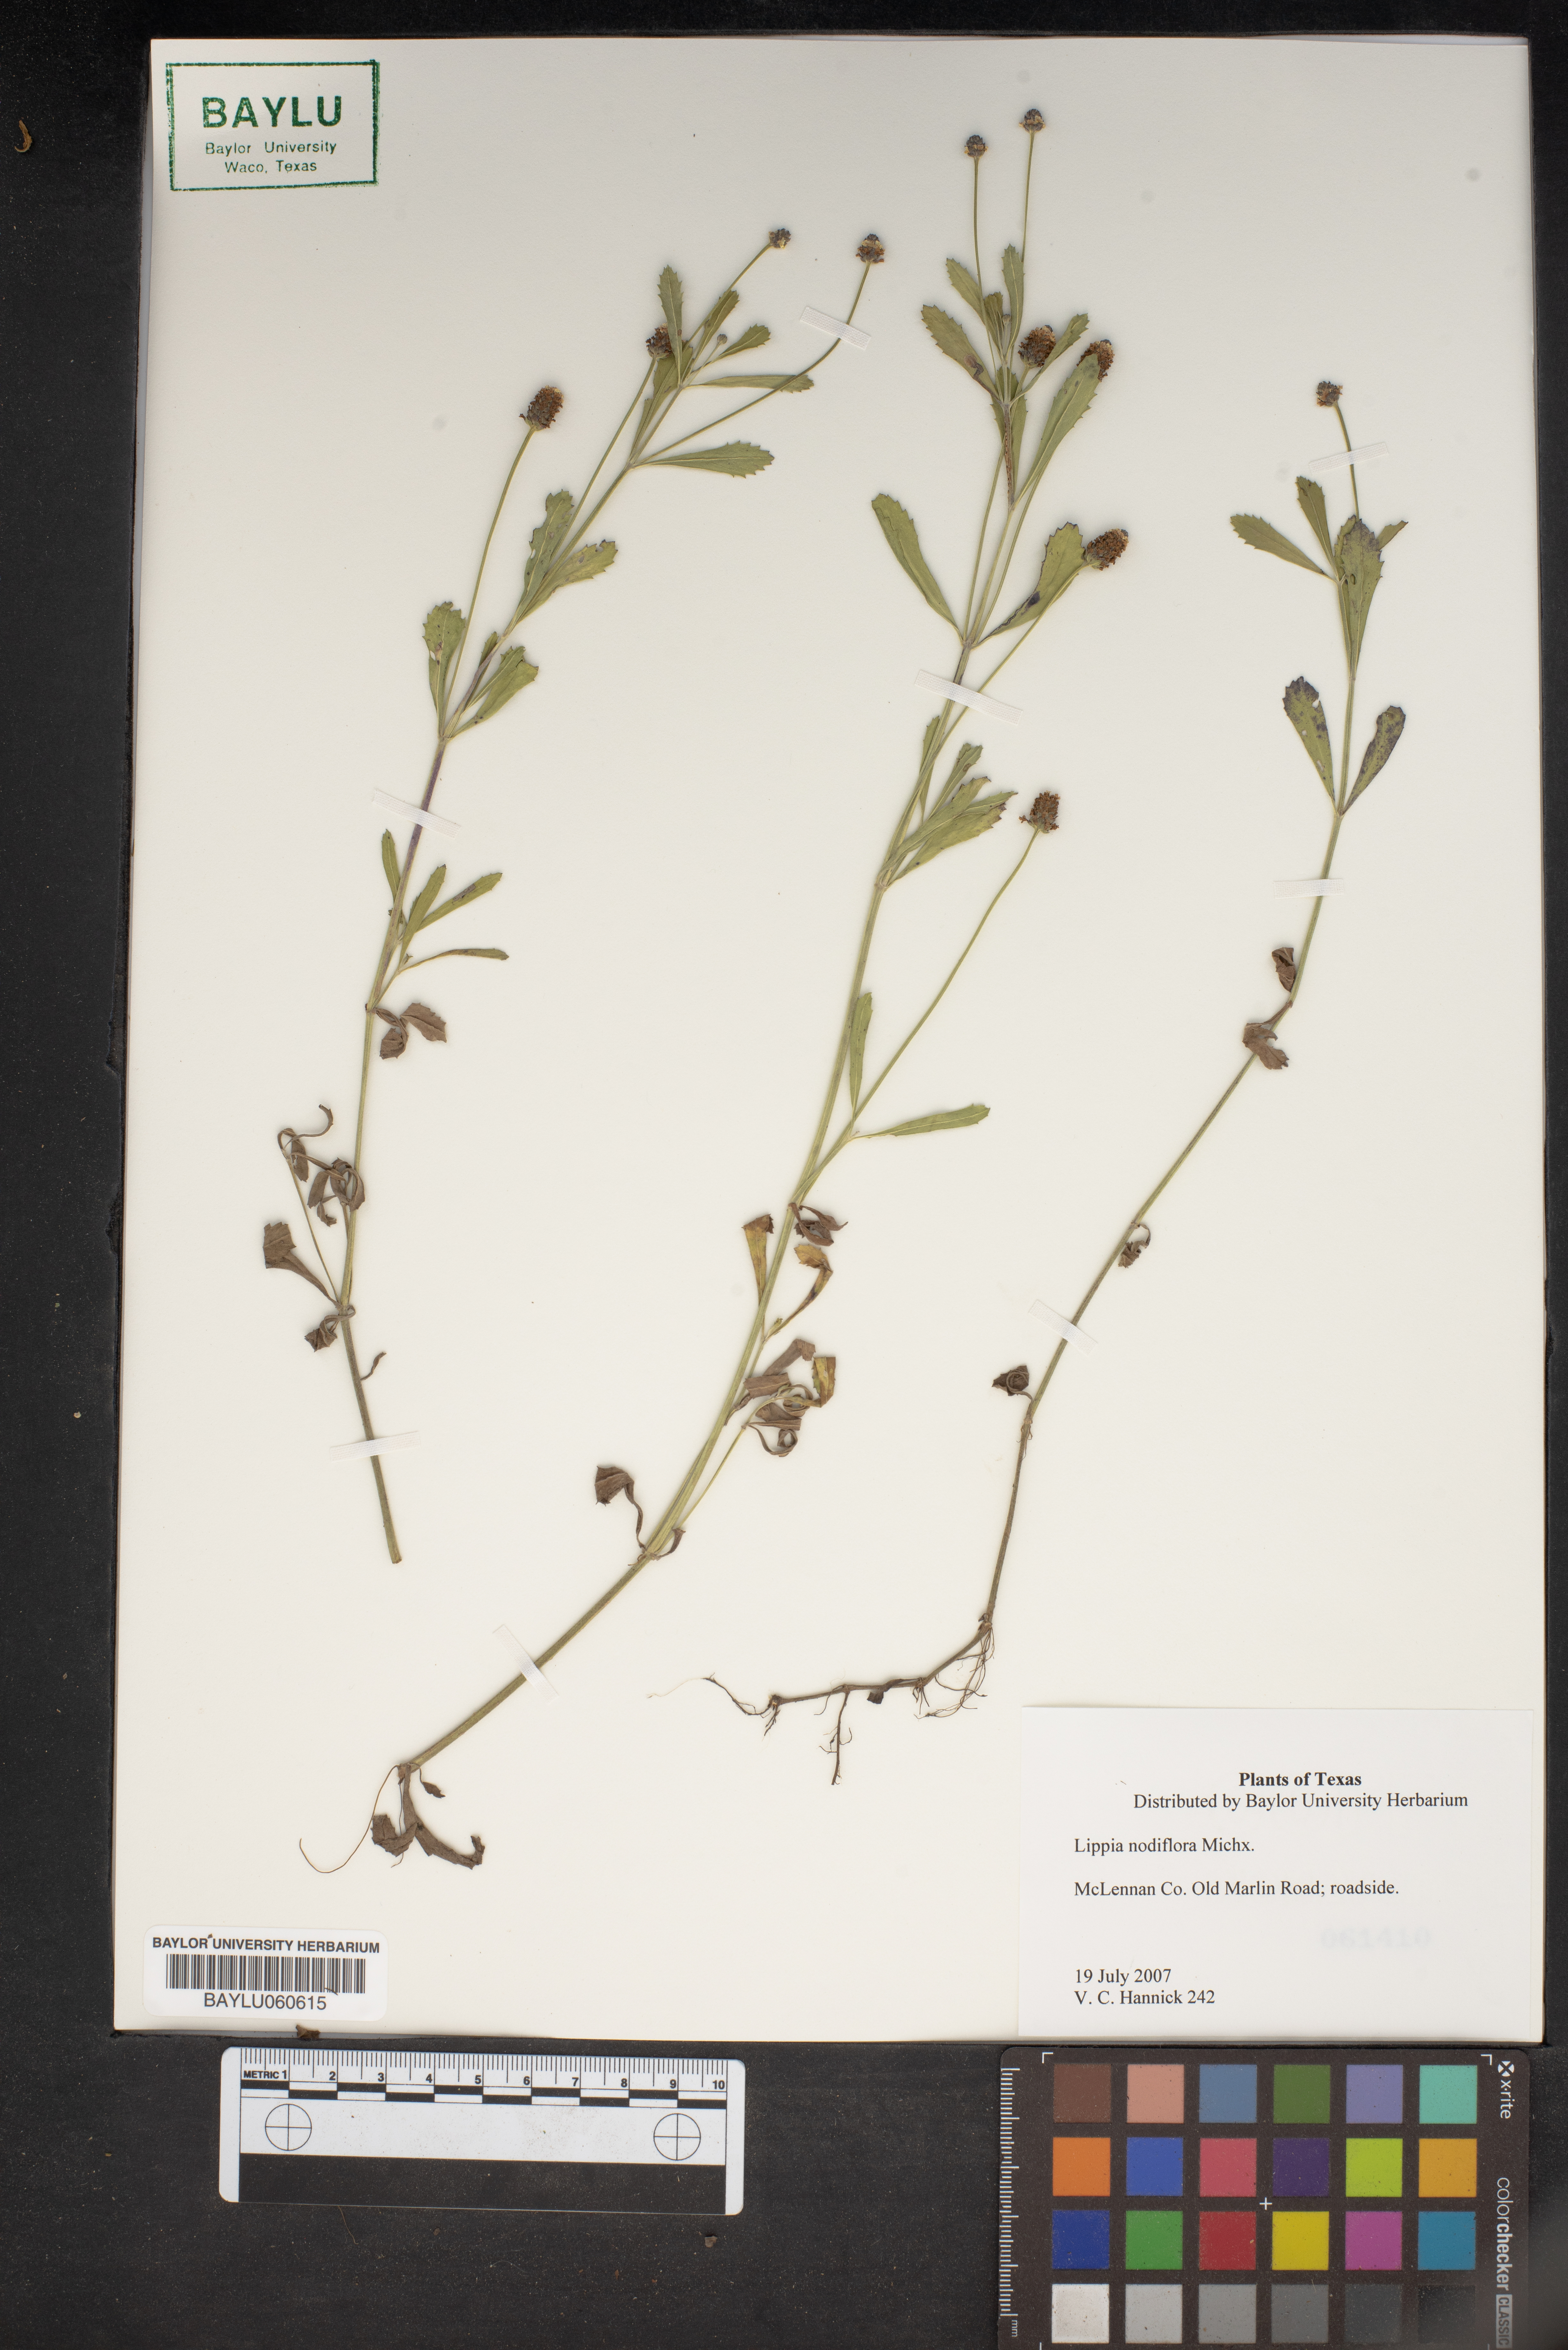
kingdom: Plantae
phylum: Tracheophyta
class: Magnoliopsida
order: Lamiales
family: Verbenaceae
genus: Phyla
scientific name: Phyla nodiflora
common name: Frogfruit
